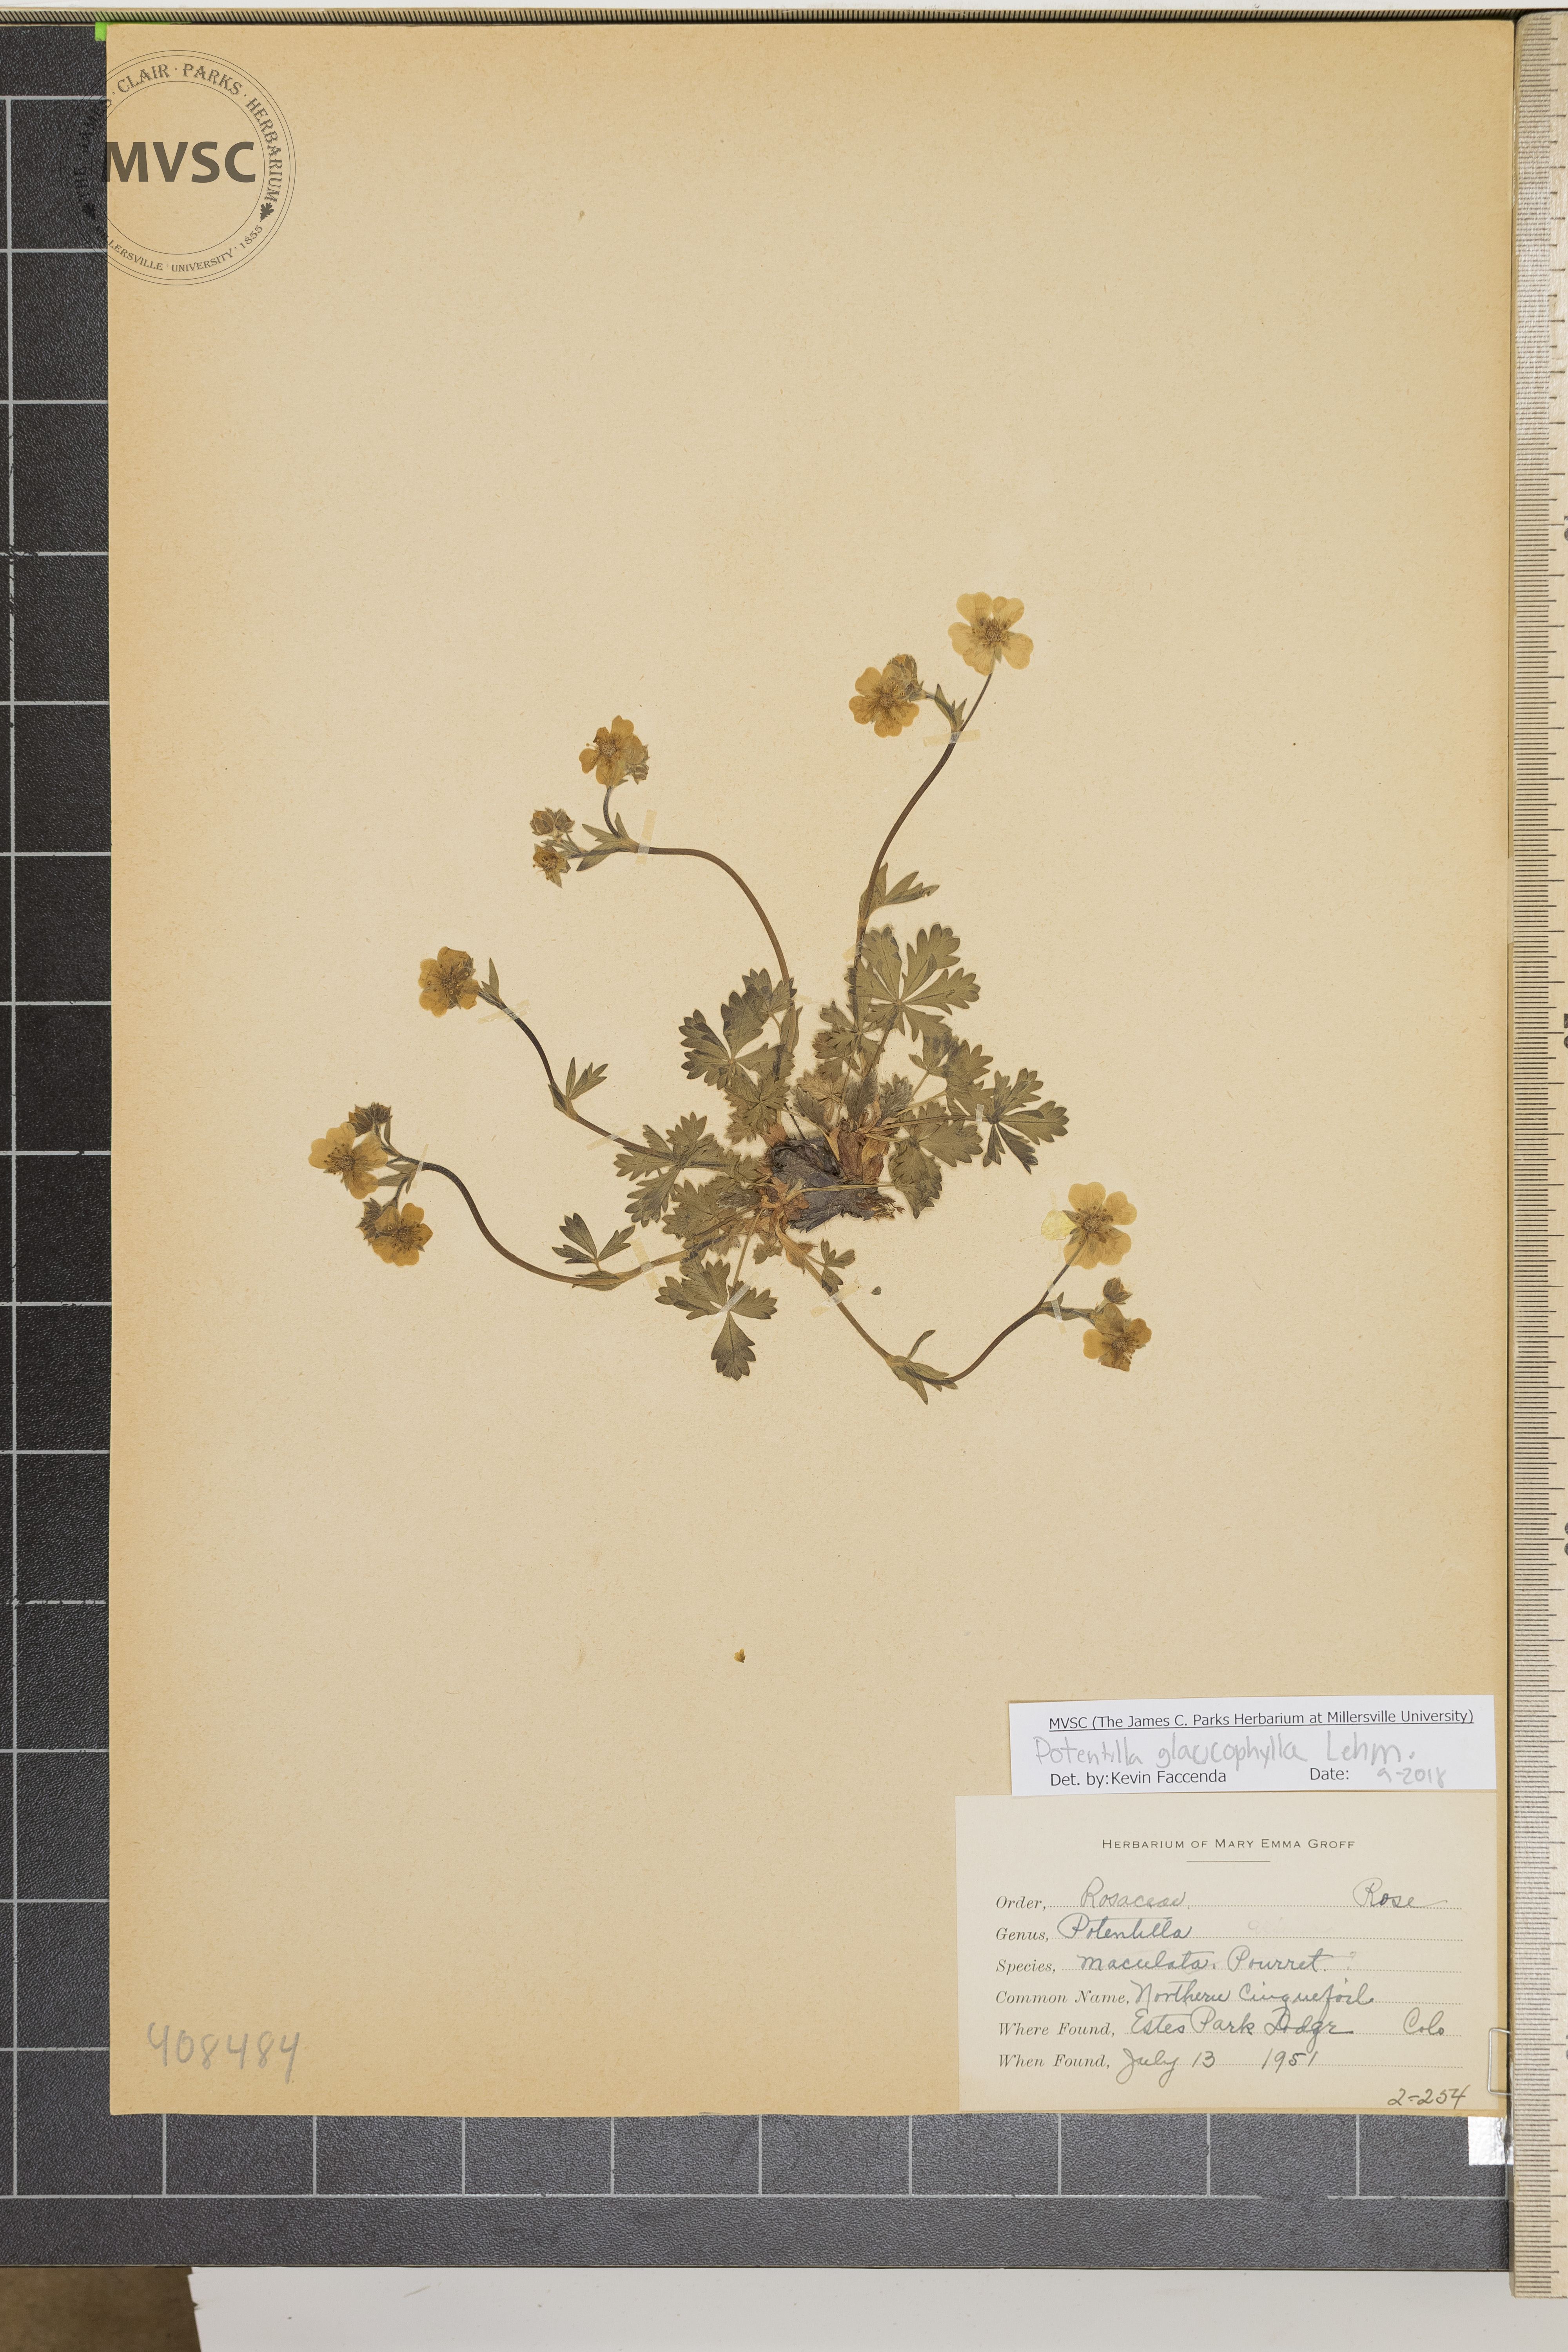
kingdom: Plantae
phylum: Tracheophyta
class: Magnoliopsida
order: Rosales
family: Rosaceae
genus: Potentilla
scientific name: Potentilla glaucophylla
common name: Northern Cinquefoil
